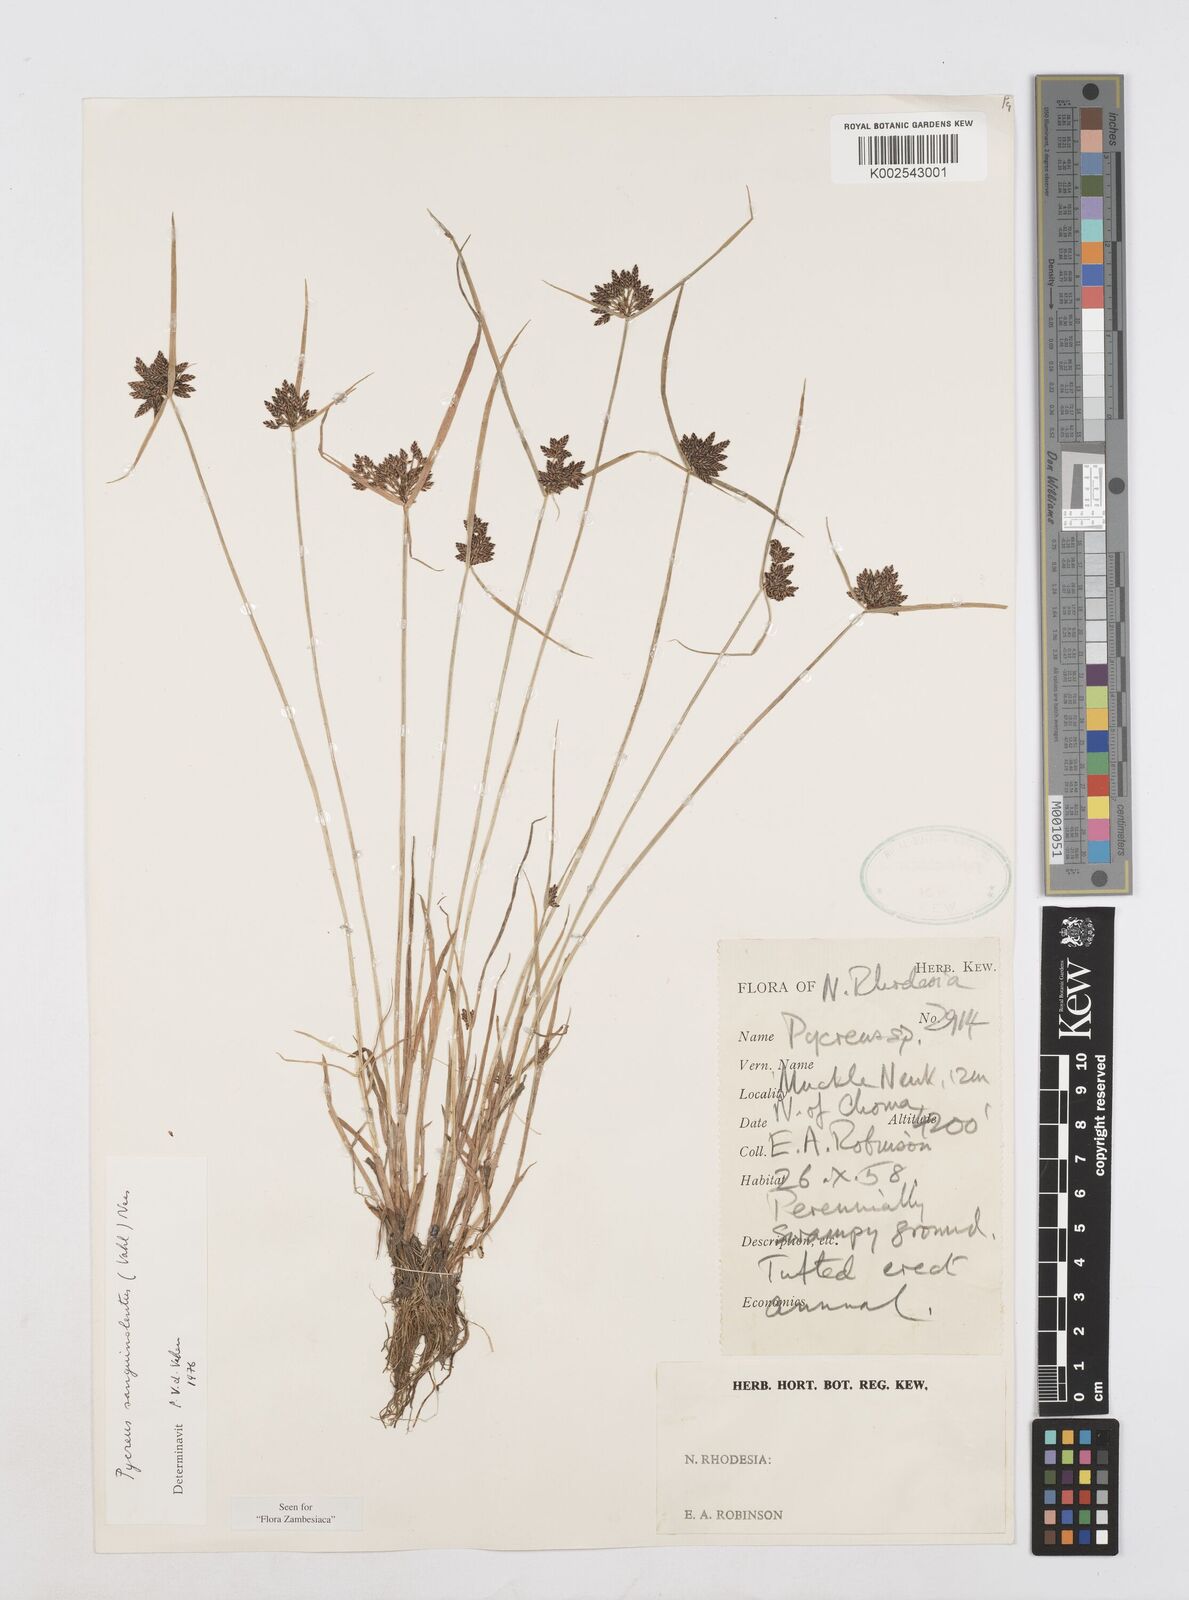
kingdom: Plantae
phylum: Tracheophyta
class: Liliopsida
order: Poales
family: Cyperaceae
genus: Cyperus
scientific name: Cyperus sanguinolentus
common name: Purpleglume flatsedge
